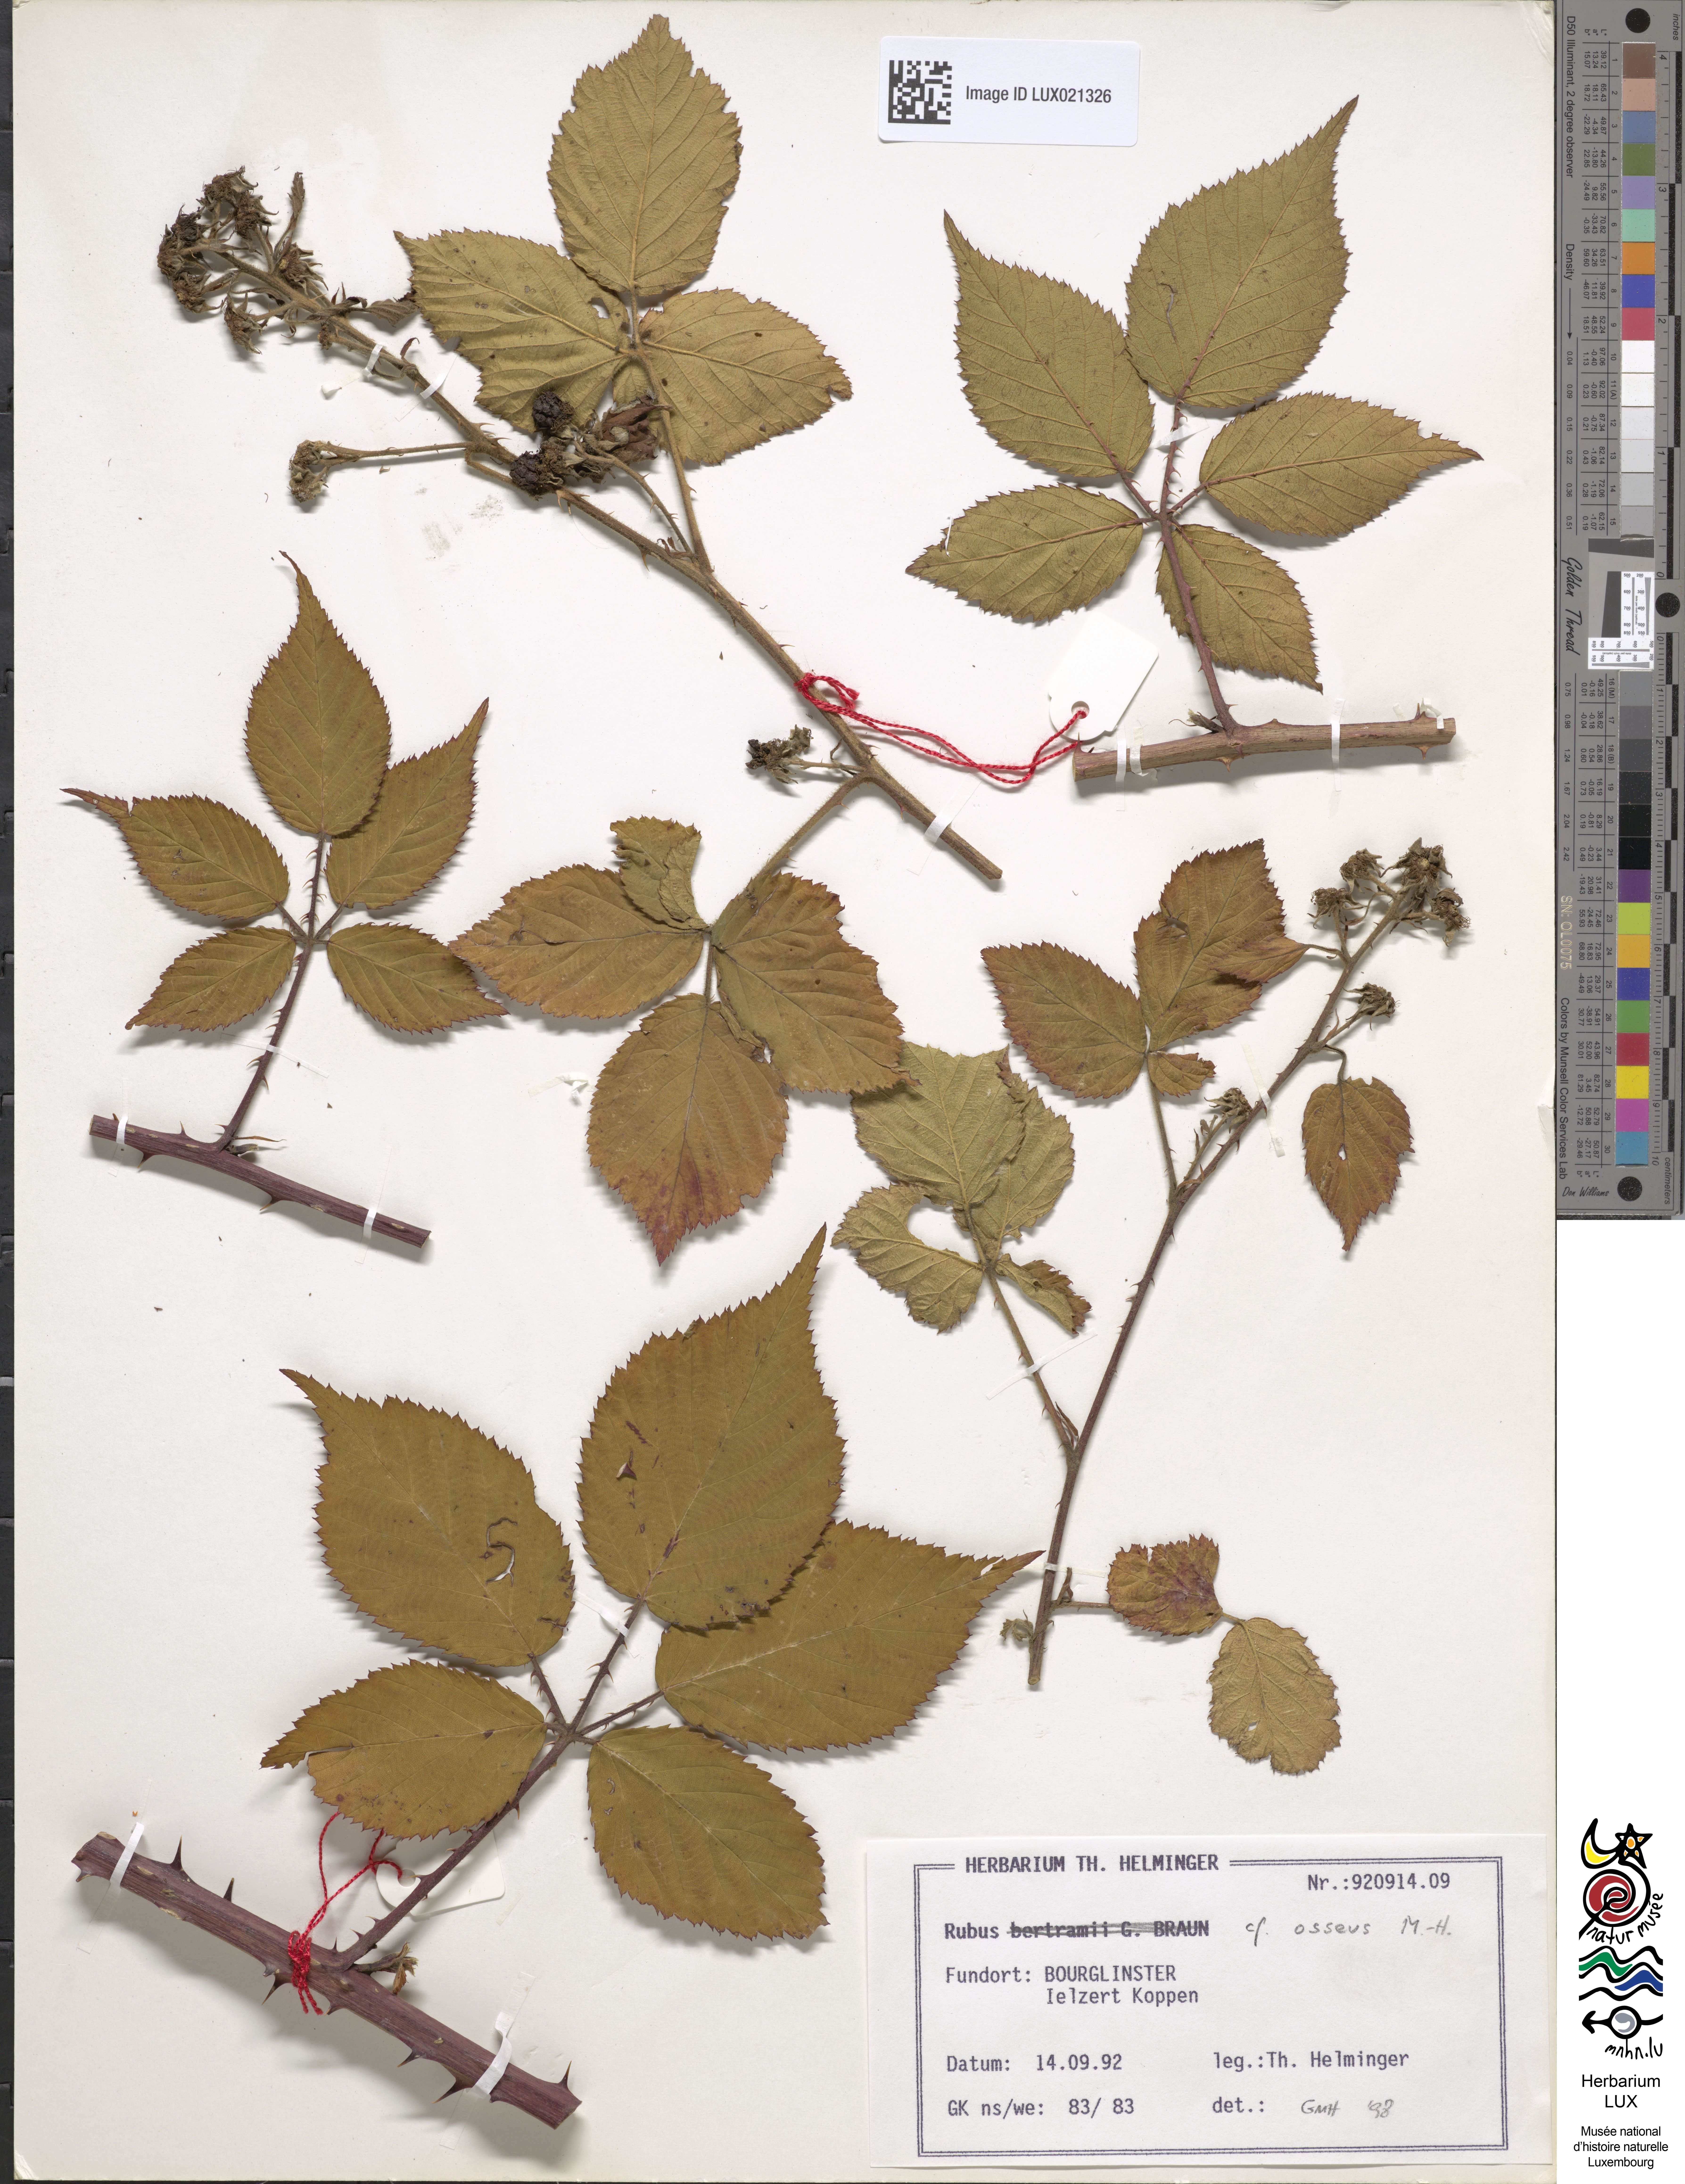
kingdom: Plantae
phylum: Tracheophyta
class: Magnoliopsida
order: Rosales
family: Rosaceae
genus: Rubus
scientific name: Rubus
